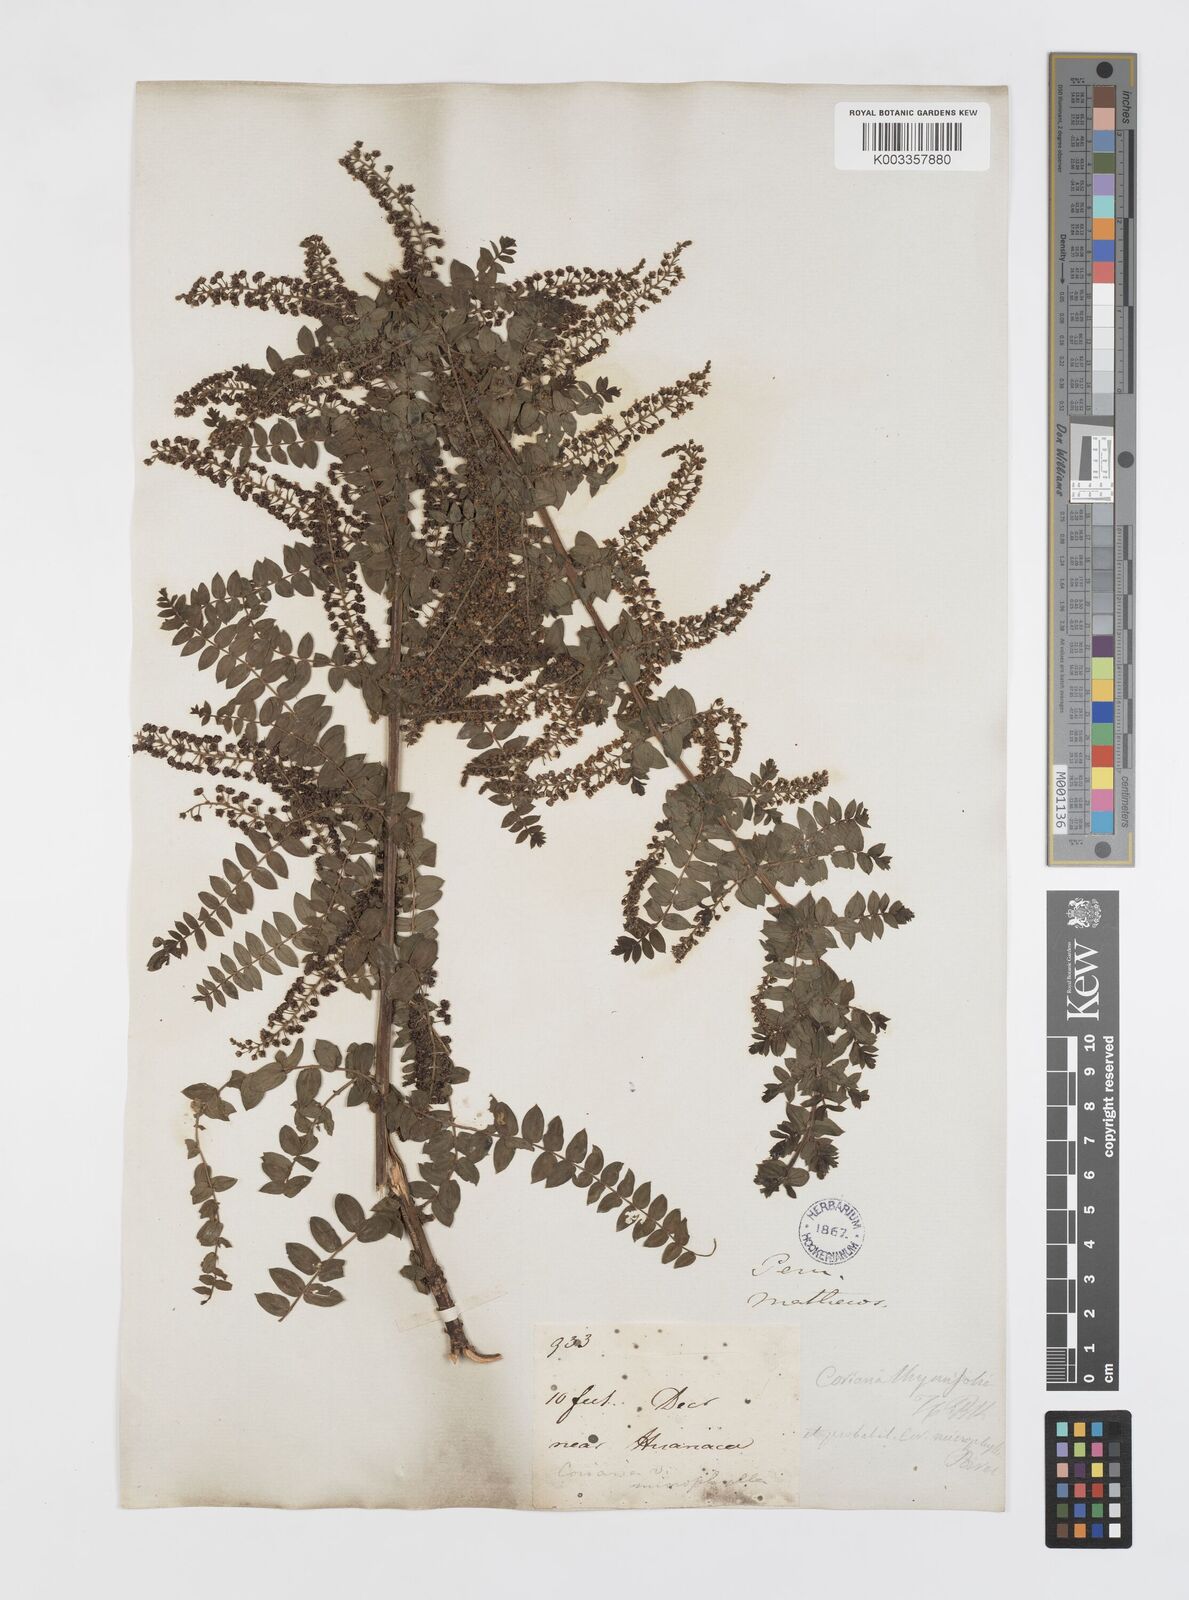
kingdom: Plantae
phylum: Tracheophyta
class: Magnoliopsida
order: Cucurbitales
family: Coriariaceae
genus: Coriaria
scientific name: Coriaria microphylla
